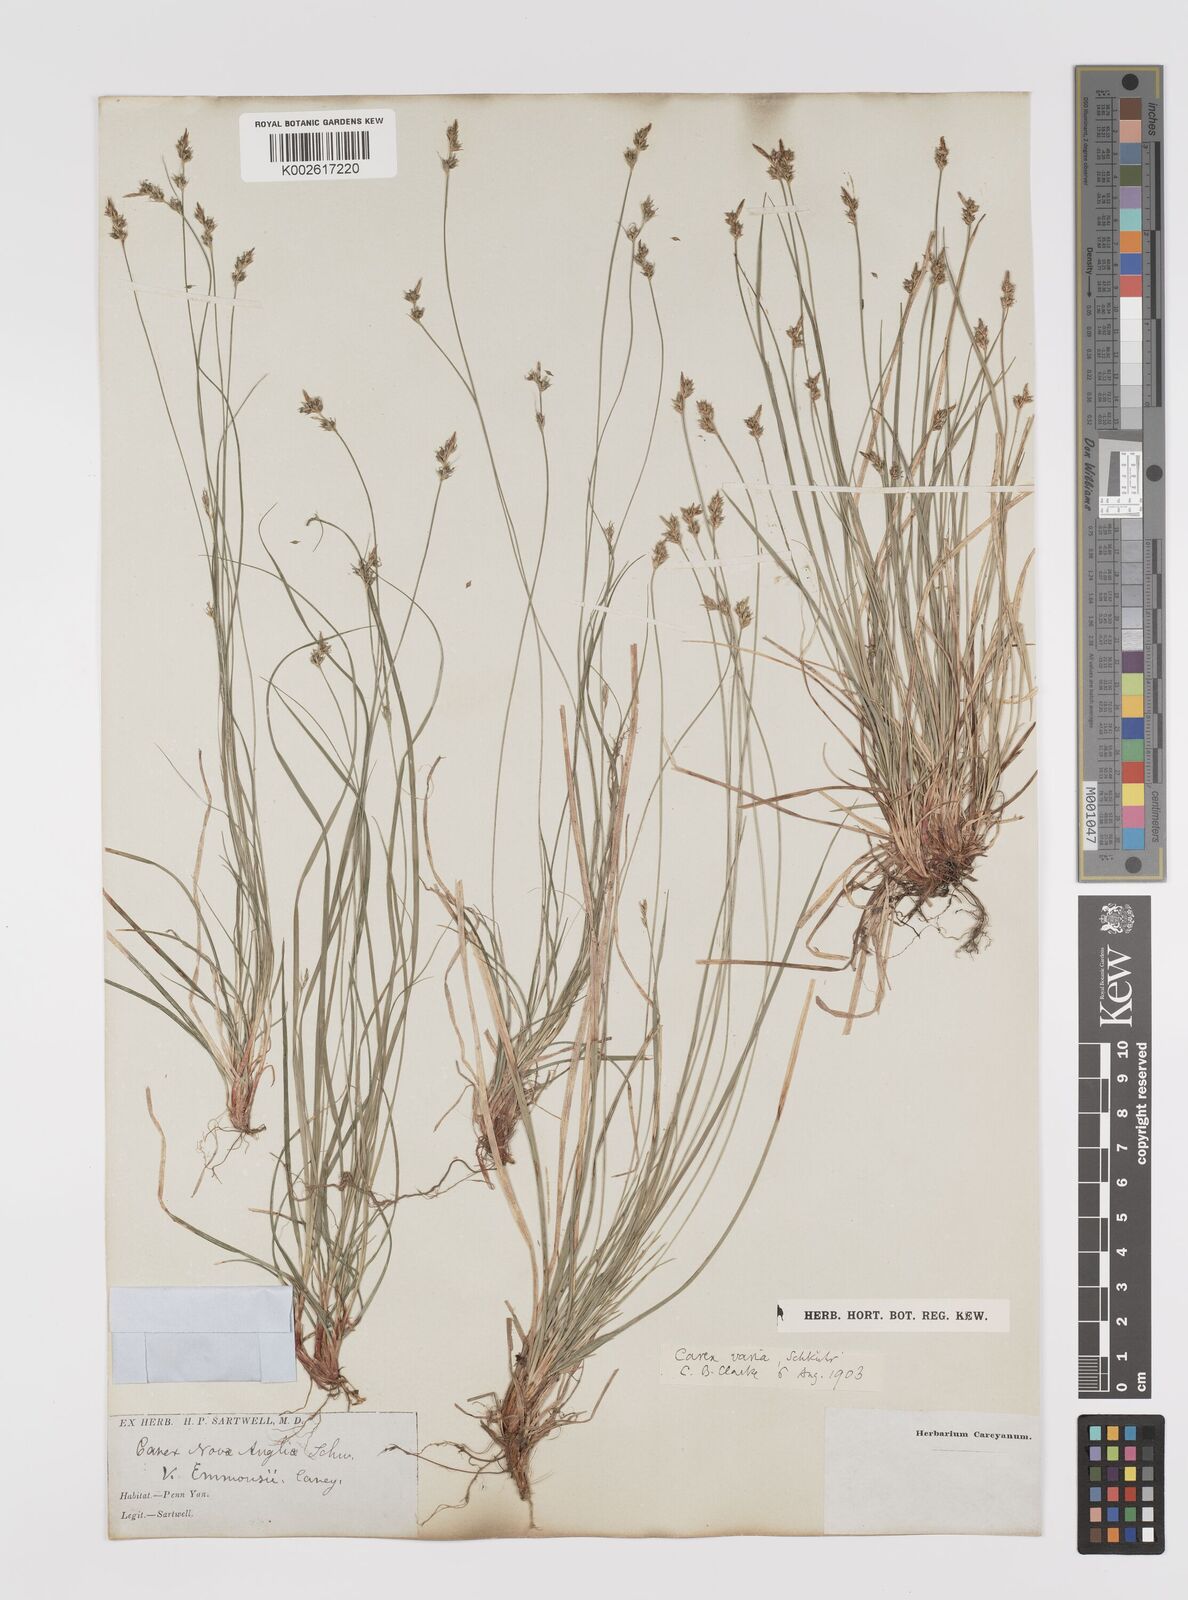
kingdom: Plantae
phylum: Tracheophyta
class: Liliopsida
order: Poales
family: Cyperaceae
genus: Carex
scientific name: Carex albicans
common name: Bellow-beaked sedge
